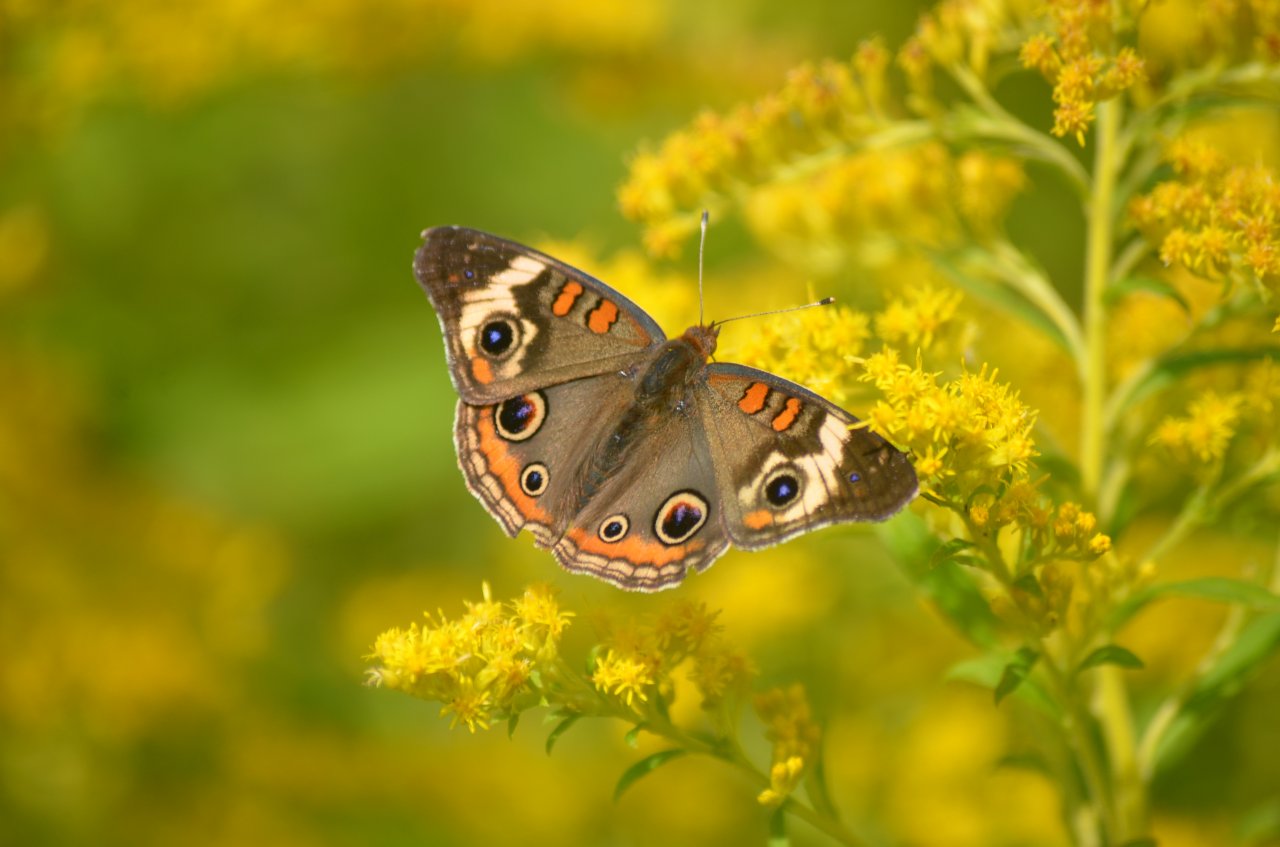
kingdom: Animalia
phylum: Arthropoda
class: Insecta
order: Lepidoptera
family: Nymphalidae
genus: Junonia
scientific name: Junonia coenia
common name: Common Buckeye
